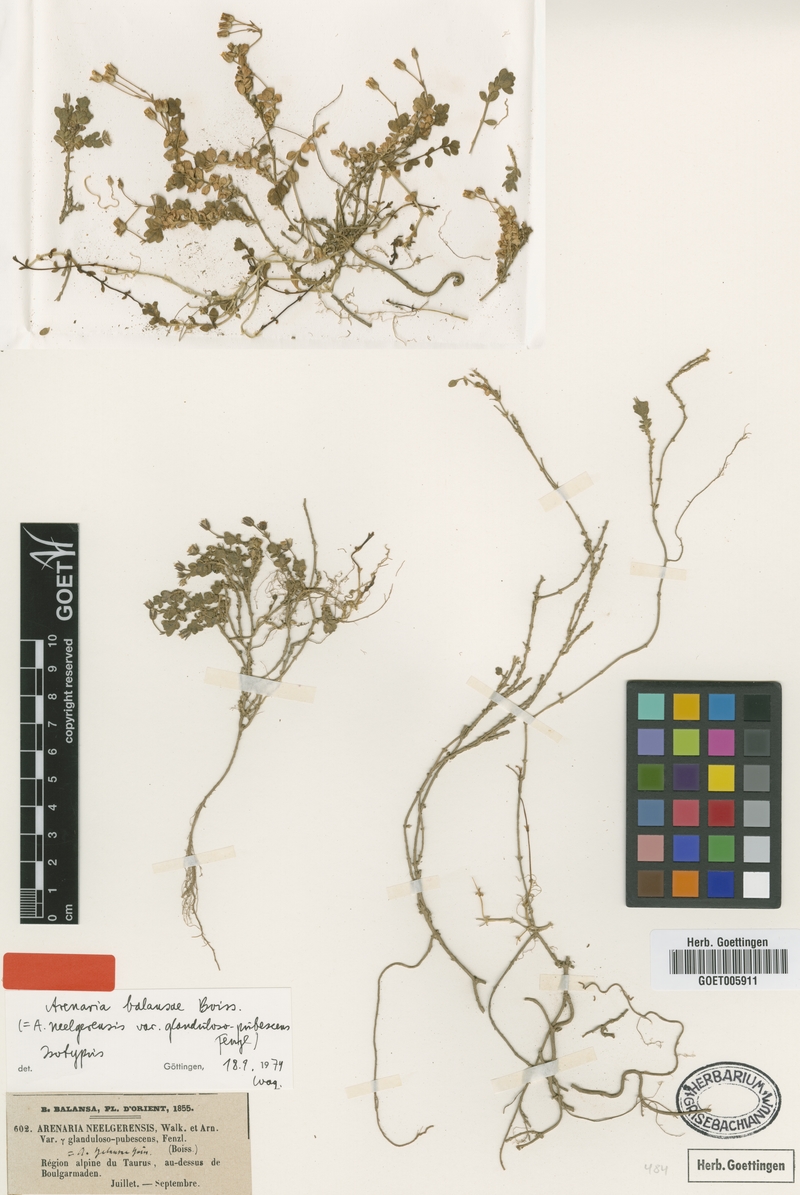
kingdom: Plantae
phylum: Tracheophyta
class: Magnoliopsida
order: Caryophyllales
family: Caryophyllaceae
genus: Arenaria
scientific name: Arenaria balansae
